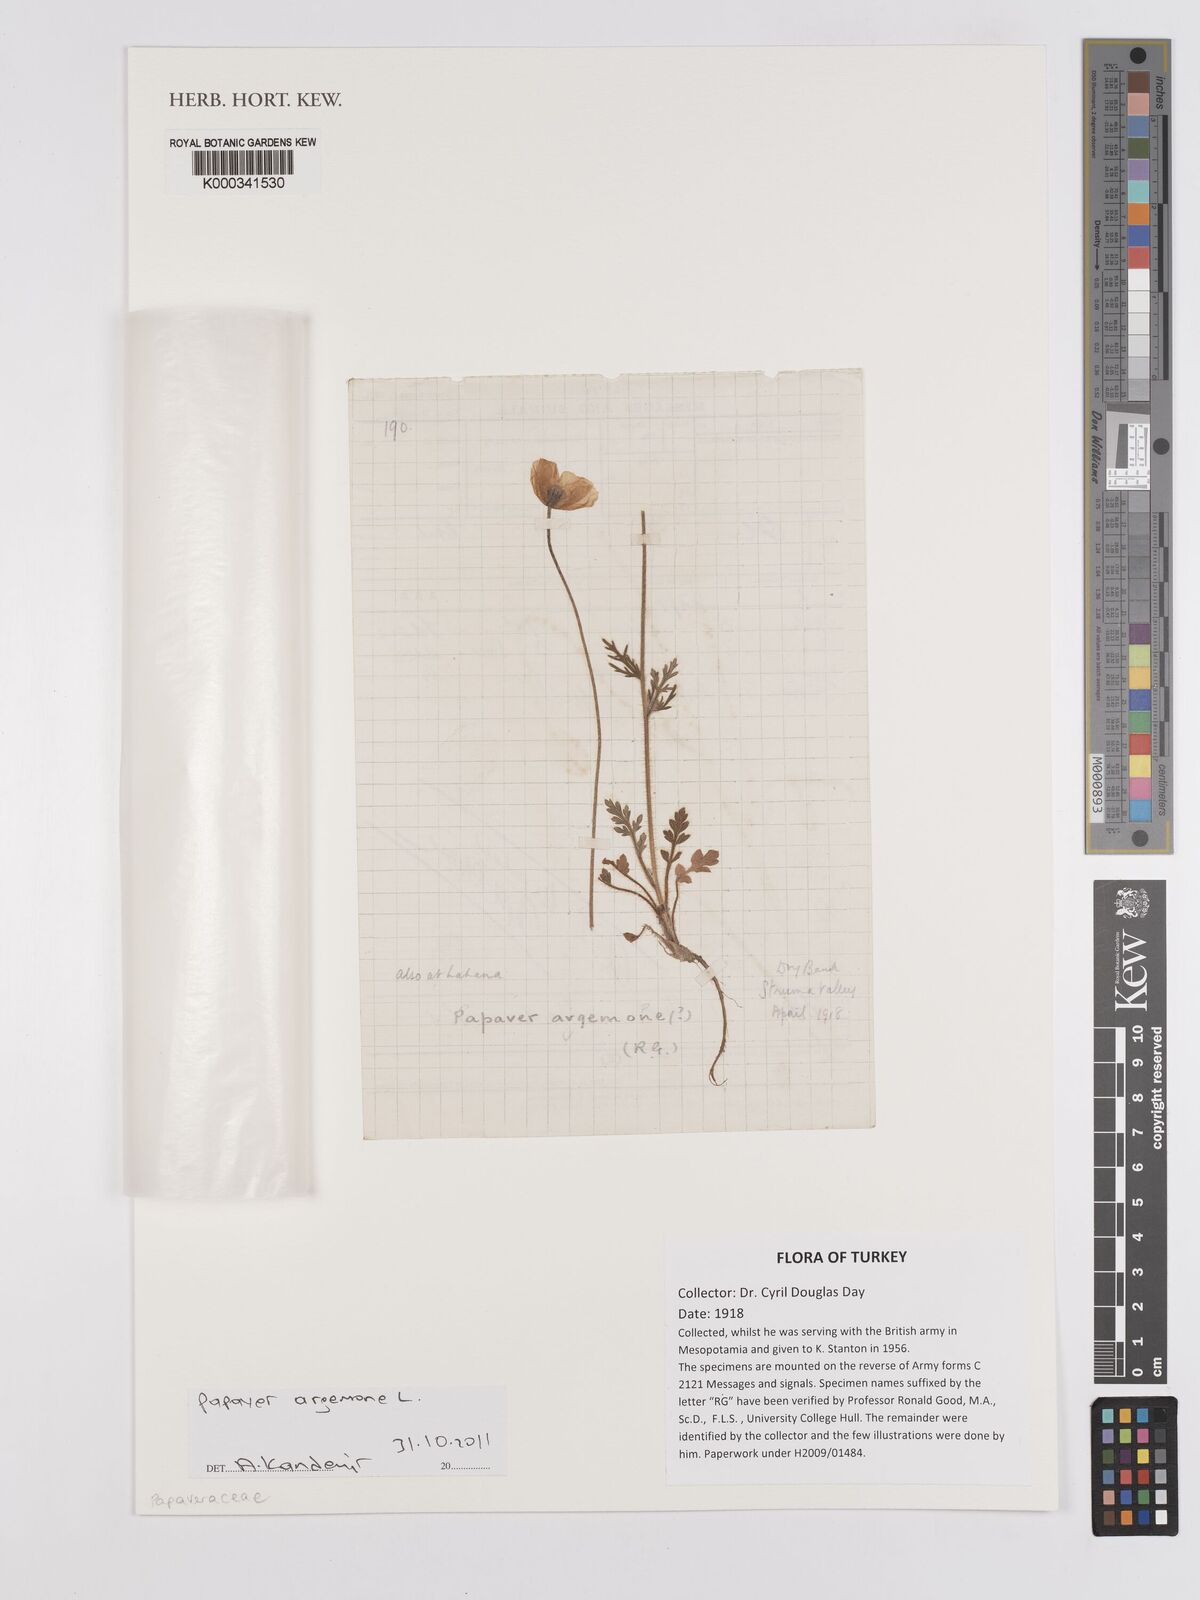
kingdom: Plantae
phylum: Tracheophyta
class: Magnoliopsida
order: Ranunculales
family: Papaveraceae
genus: Roemeria
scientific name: Roemeria argemone
